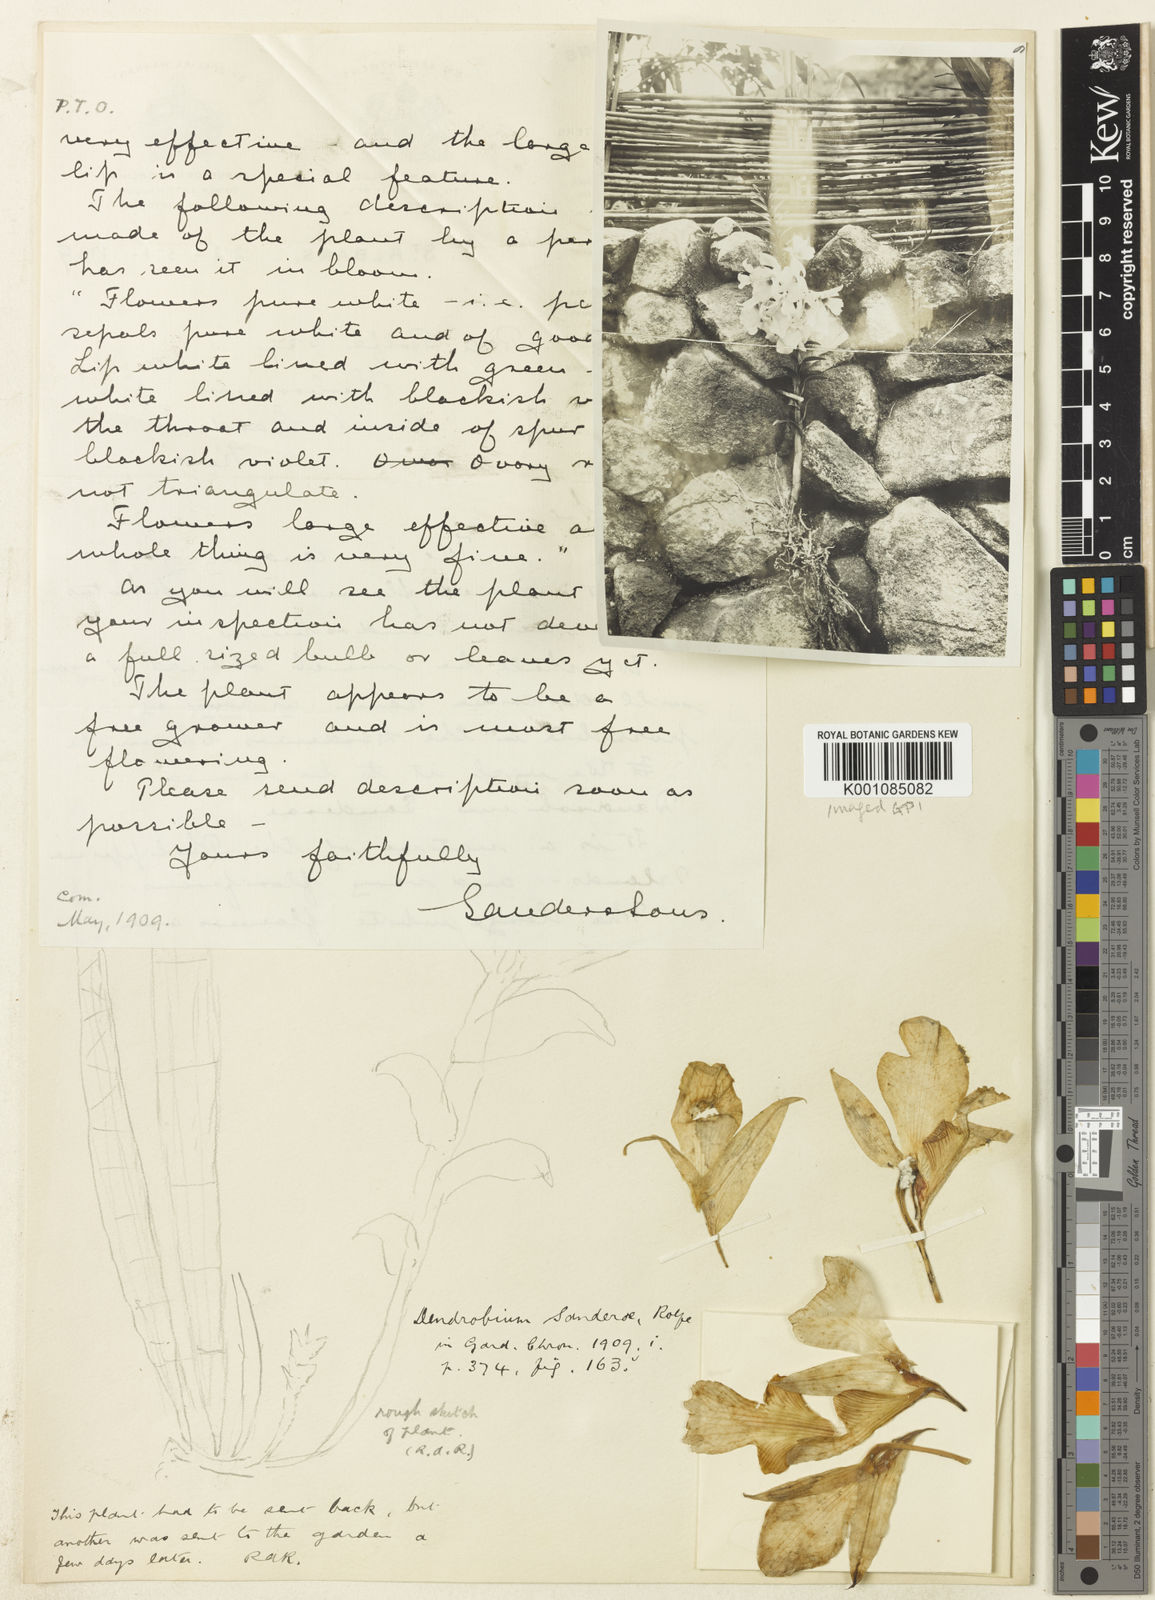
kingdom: Plantae
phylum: Tracheophyta
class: Liliopsida
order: Asparagales
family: Orchidaceae
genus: Dendrobium
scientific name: Dendrobium sanderae
